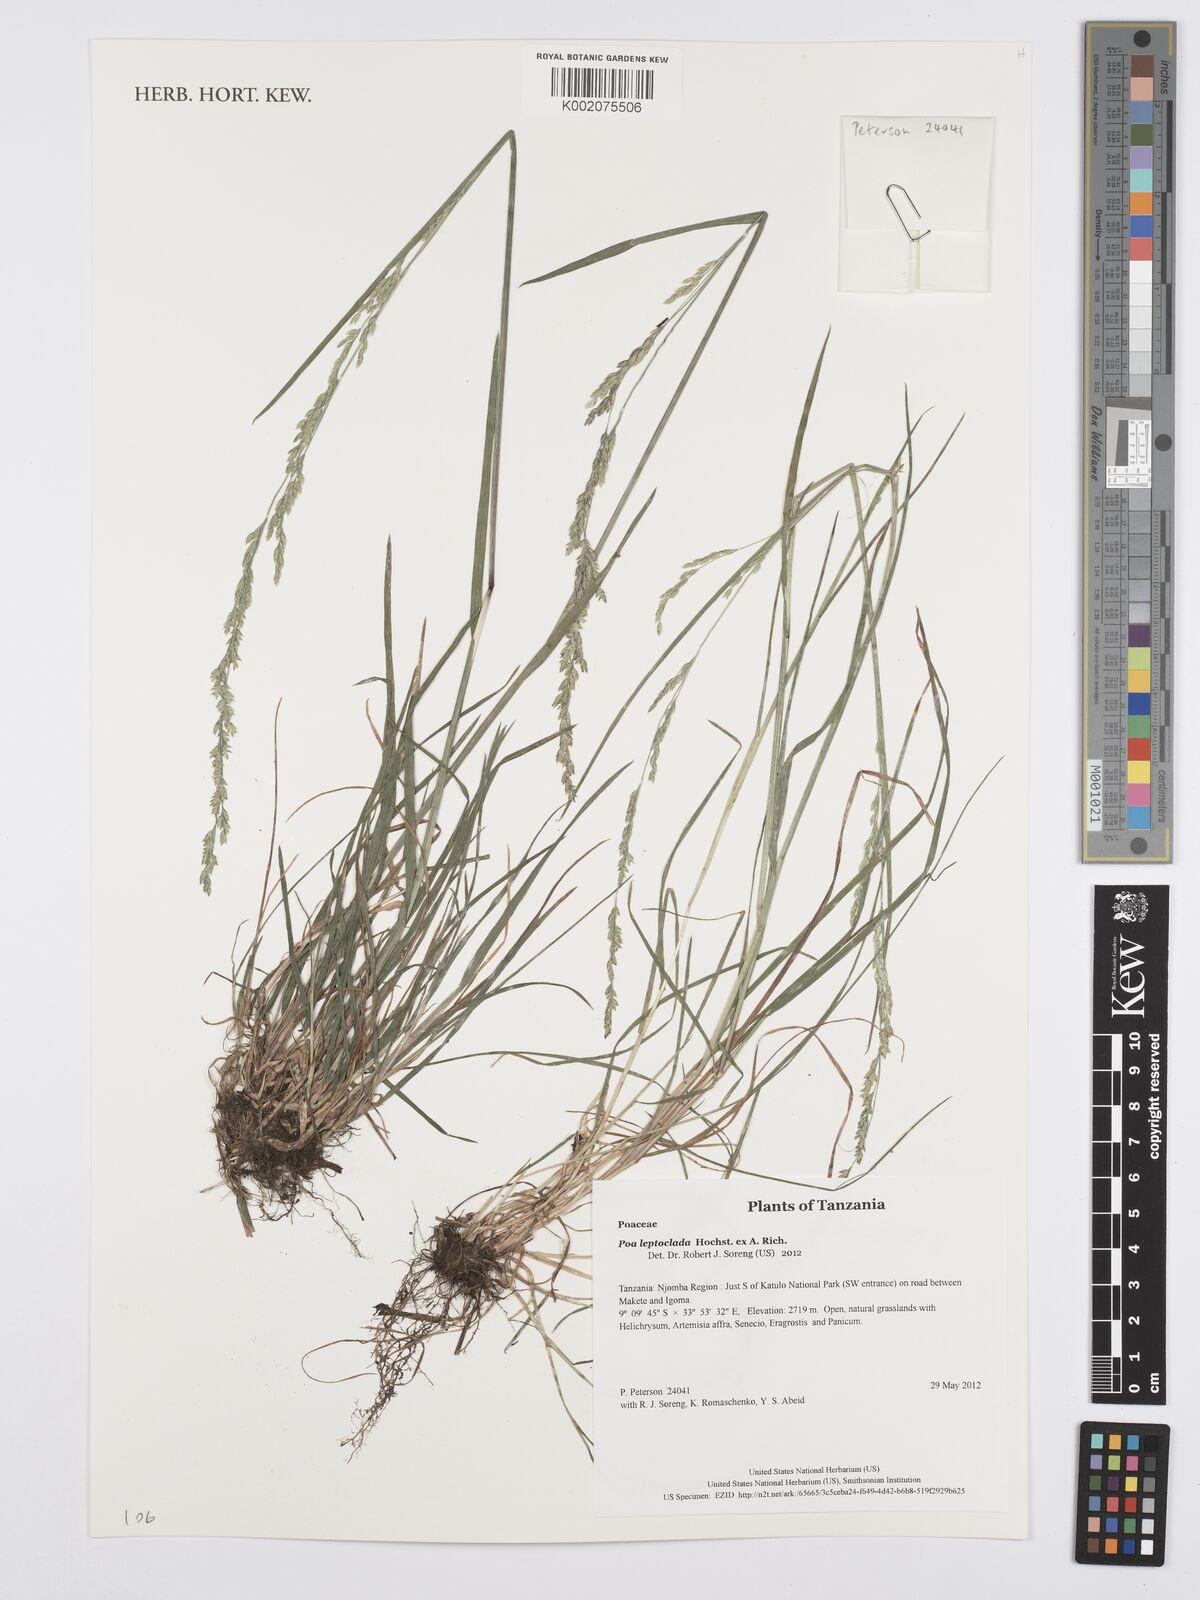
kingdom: Plantae
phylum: Tracheophyta
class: Liliopsida
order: Poales
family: Poaceae
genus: Poa
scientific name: Poa leptoclada
